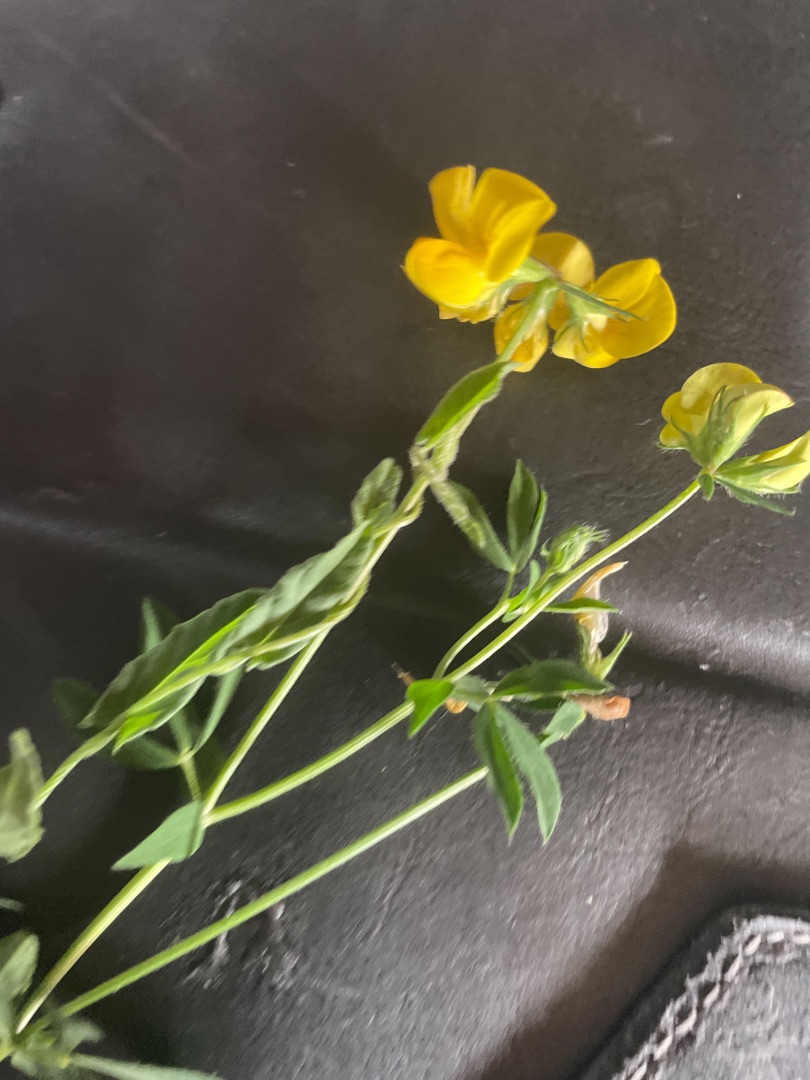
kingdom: Plantae
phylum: Tracheophyta
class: Magnoliopsida
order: Fabales
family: Fabaceae
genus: Lotus
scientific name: Lotus corniculatus
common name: Almindelig kællingetand
